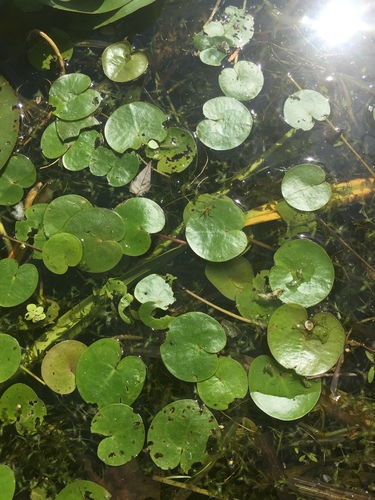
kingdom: Plantae
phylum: Tracheophyta
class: Liliopsida
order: Alismatales
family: Hydrocharitaceae
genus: Hydrocharis
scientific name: Hydrocharis morsus-ranae
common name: European frog-bit
